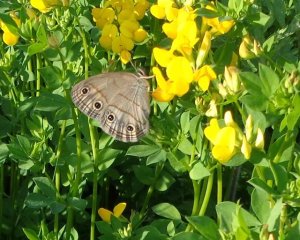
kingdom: Animalia
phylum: Arthropoda
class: Insecta
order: Lepidoptera
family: Nymphalidae
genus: Euptychia
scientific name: Euptychia cymela
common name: Little Wood Satyr
